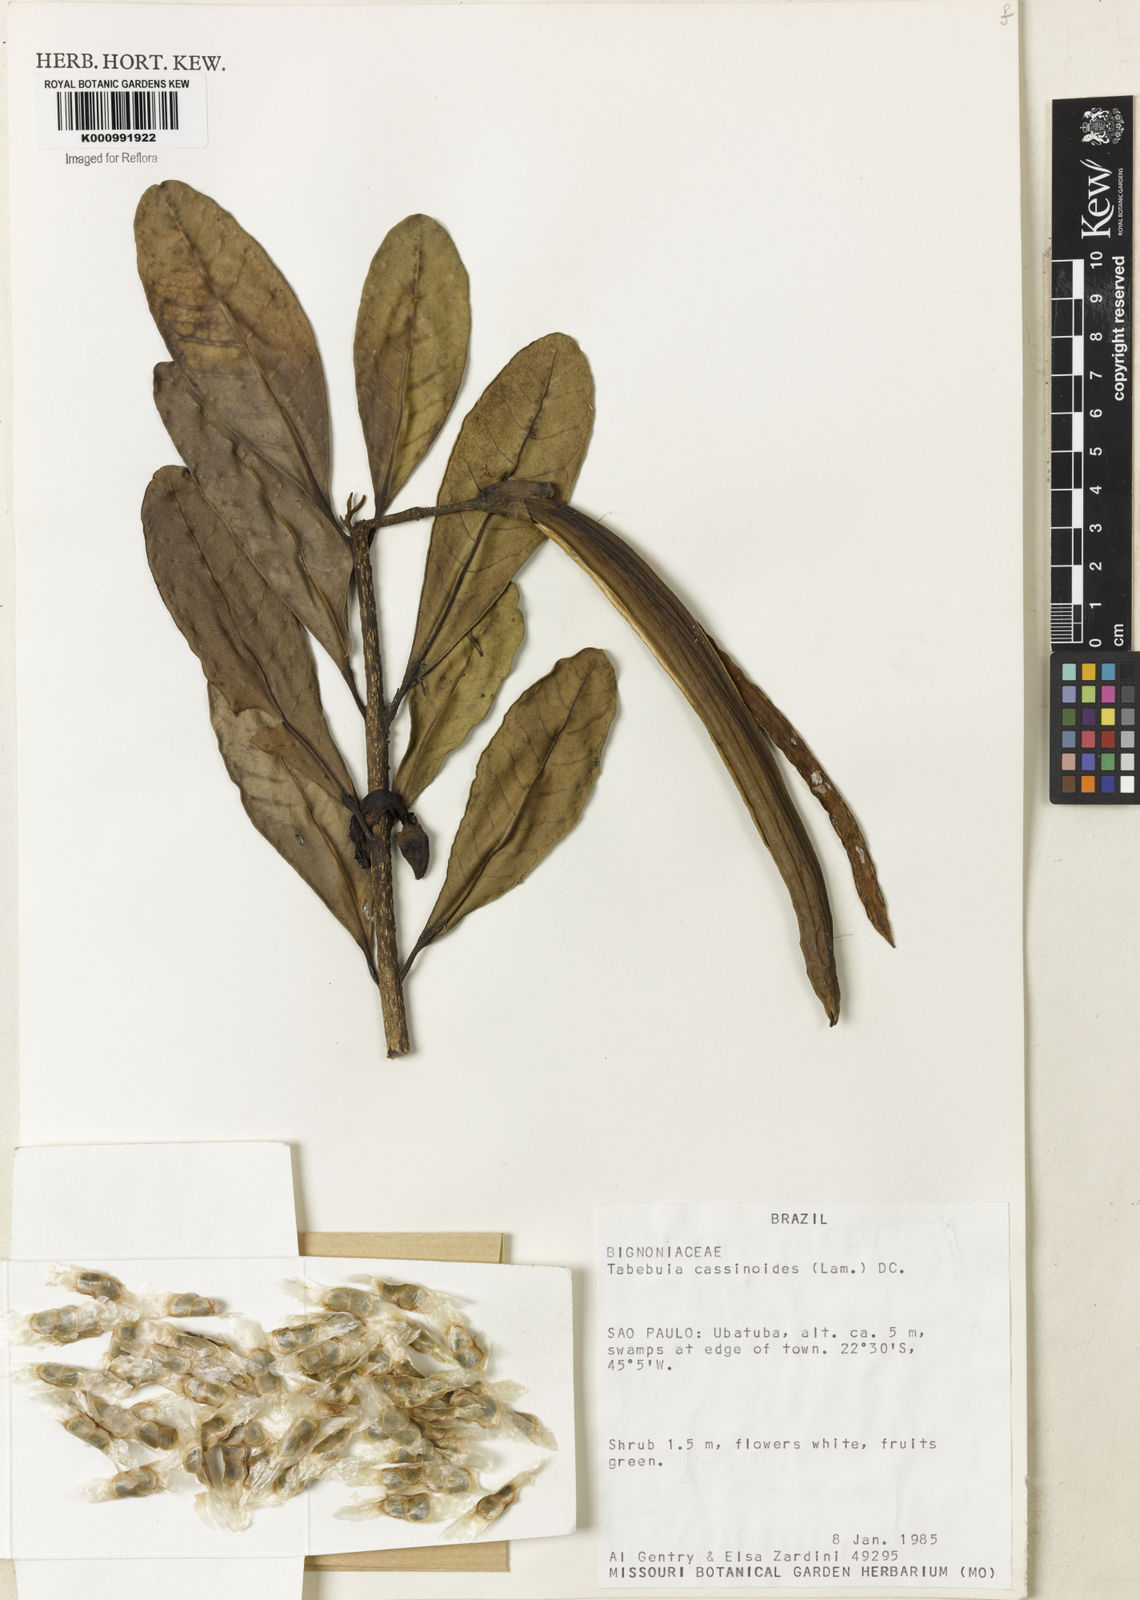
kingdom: Plantae
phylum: Tracheophyta
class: Magnoliopsida
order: Lamiales
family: Bignoniaceae
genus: Tabebuia
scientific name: Tabebuia cassinoides
